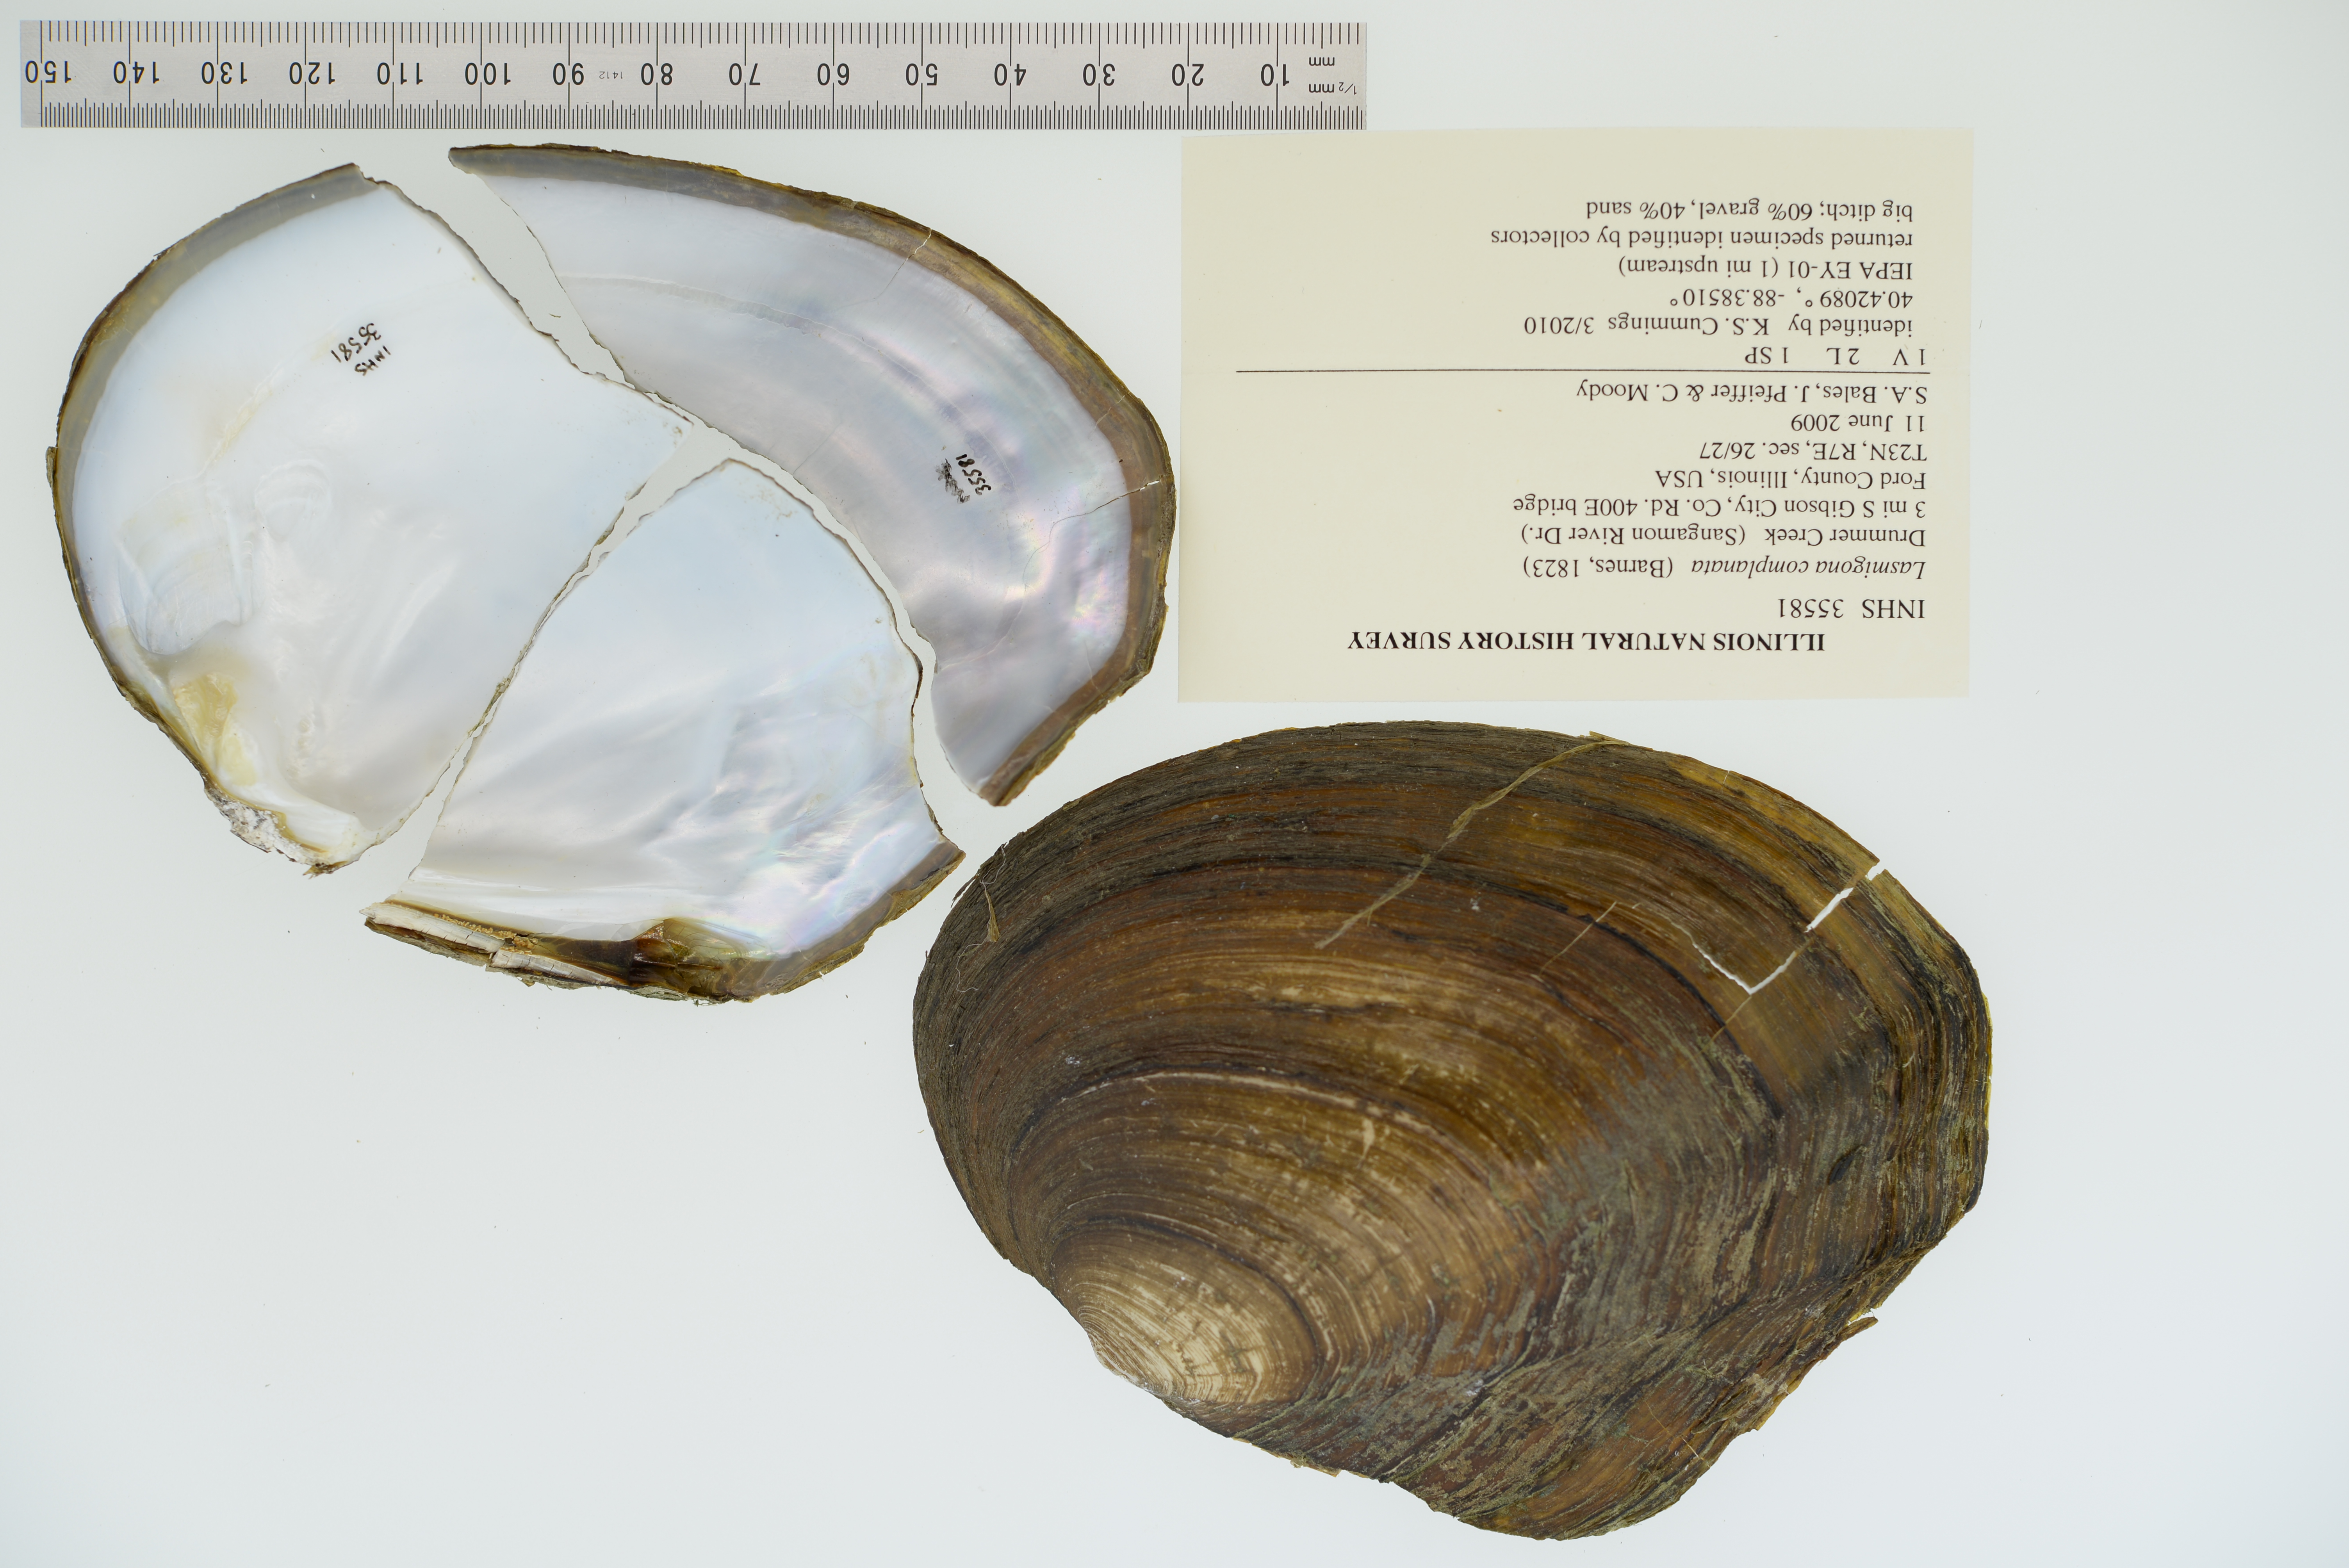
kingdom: Animalia
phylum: Mollusca
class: Bivalvia
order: Unionida
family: Unionidae
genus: Lasmigona
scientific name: Lasmigona complanata
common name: White heelsplitter
